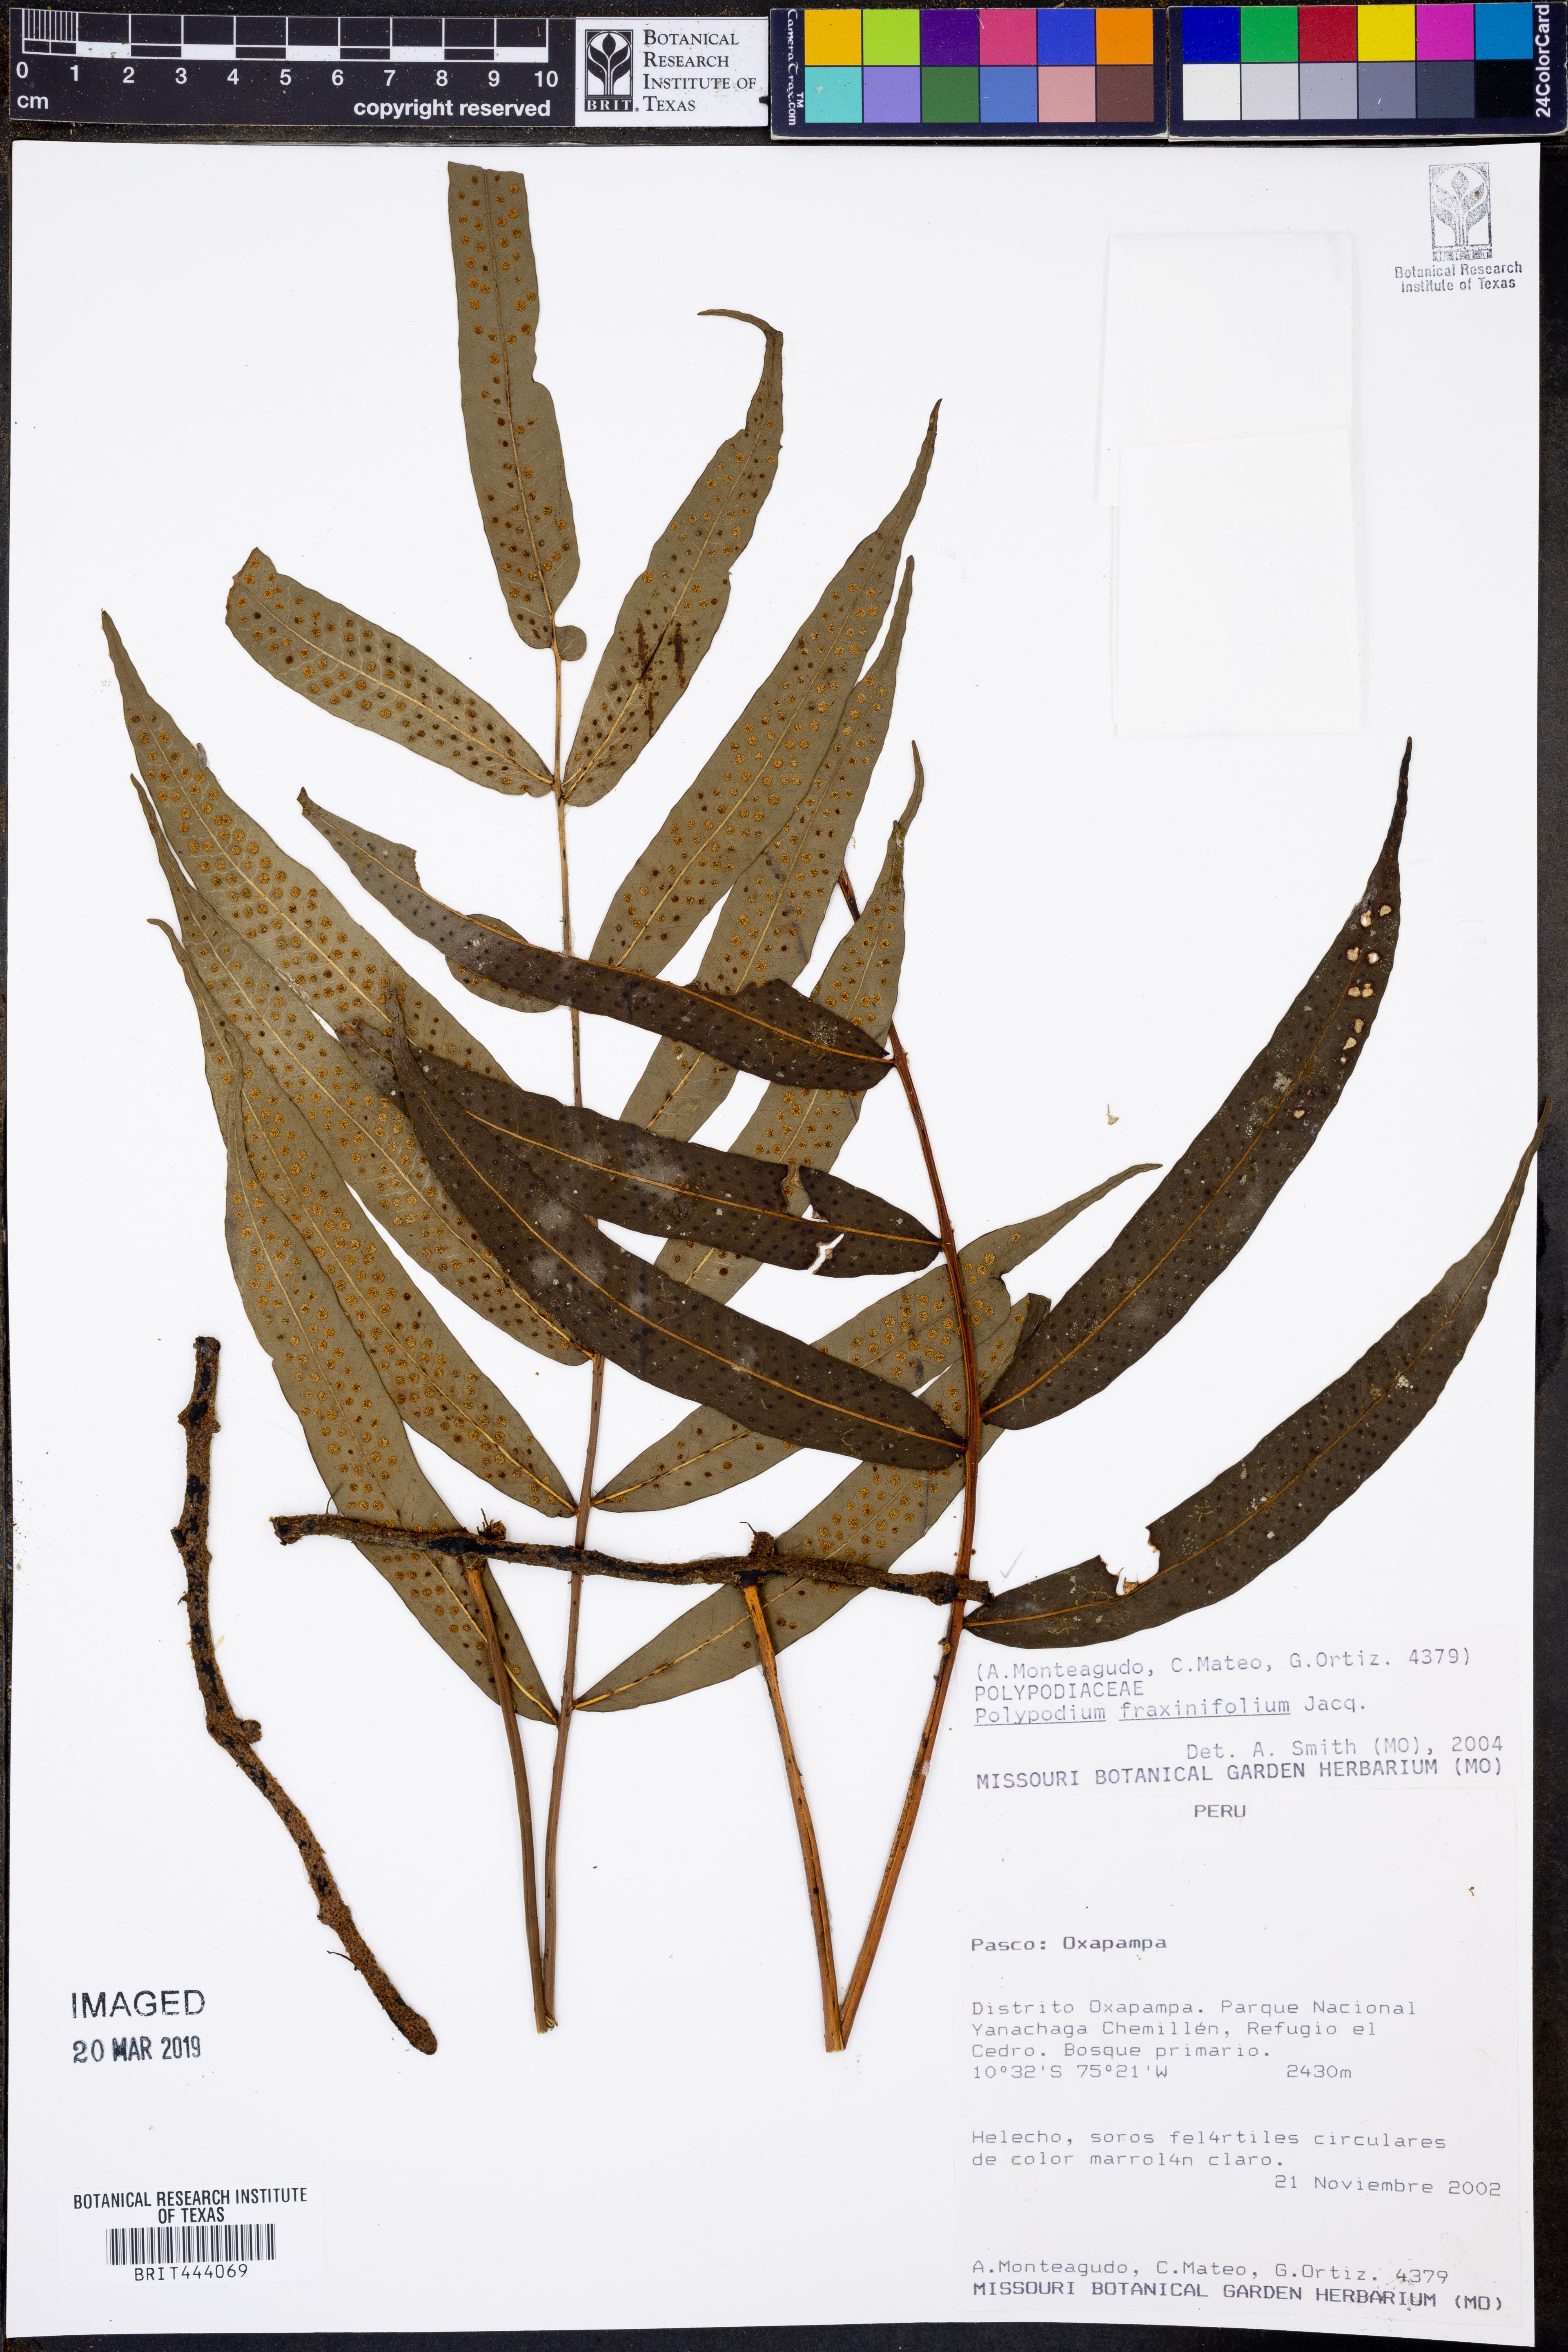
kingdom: Plantae
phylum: Tracheophyta
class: Polypodiopsida
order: Polypodiales
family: Polypodiaceae
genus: Serpocaulon
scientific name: Serpocaulon fraxinifolium
